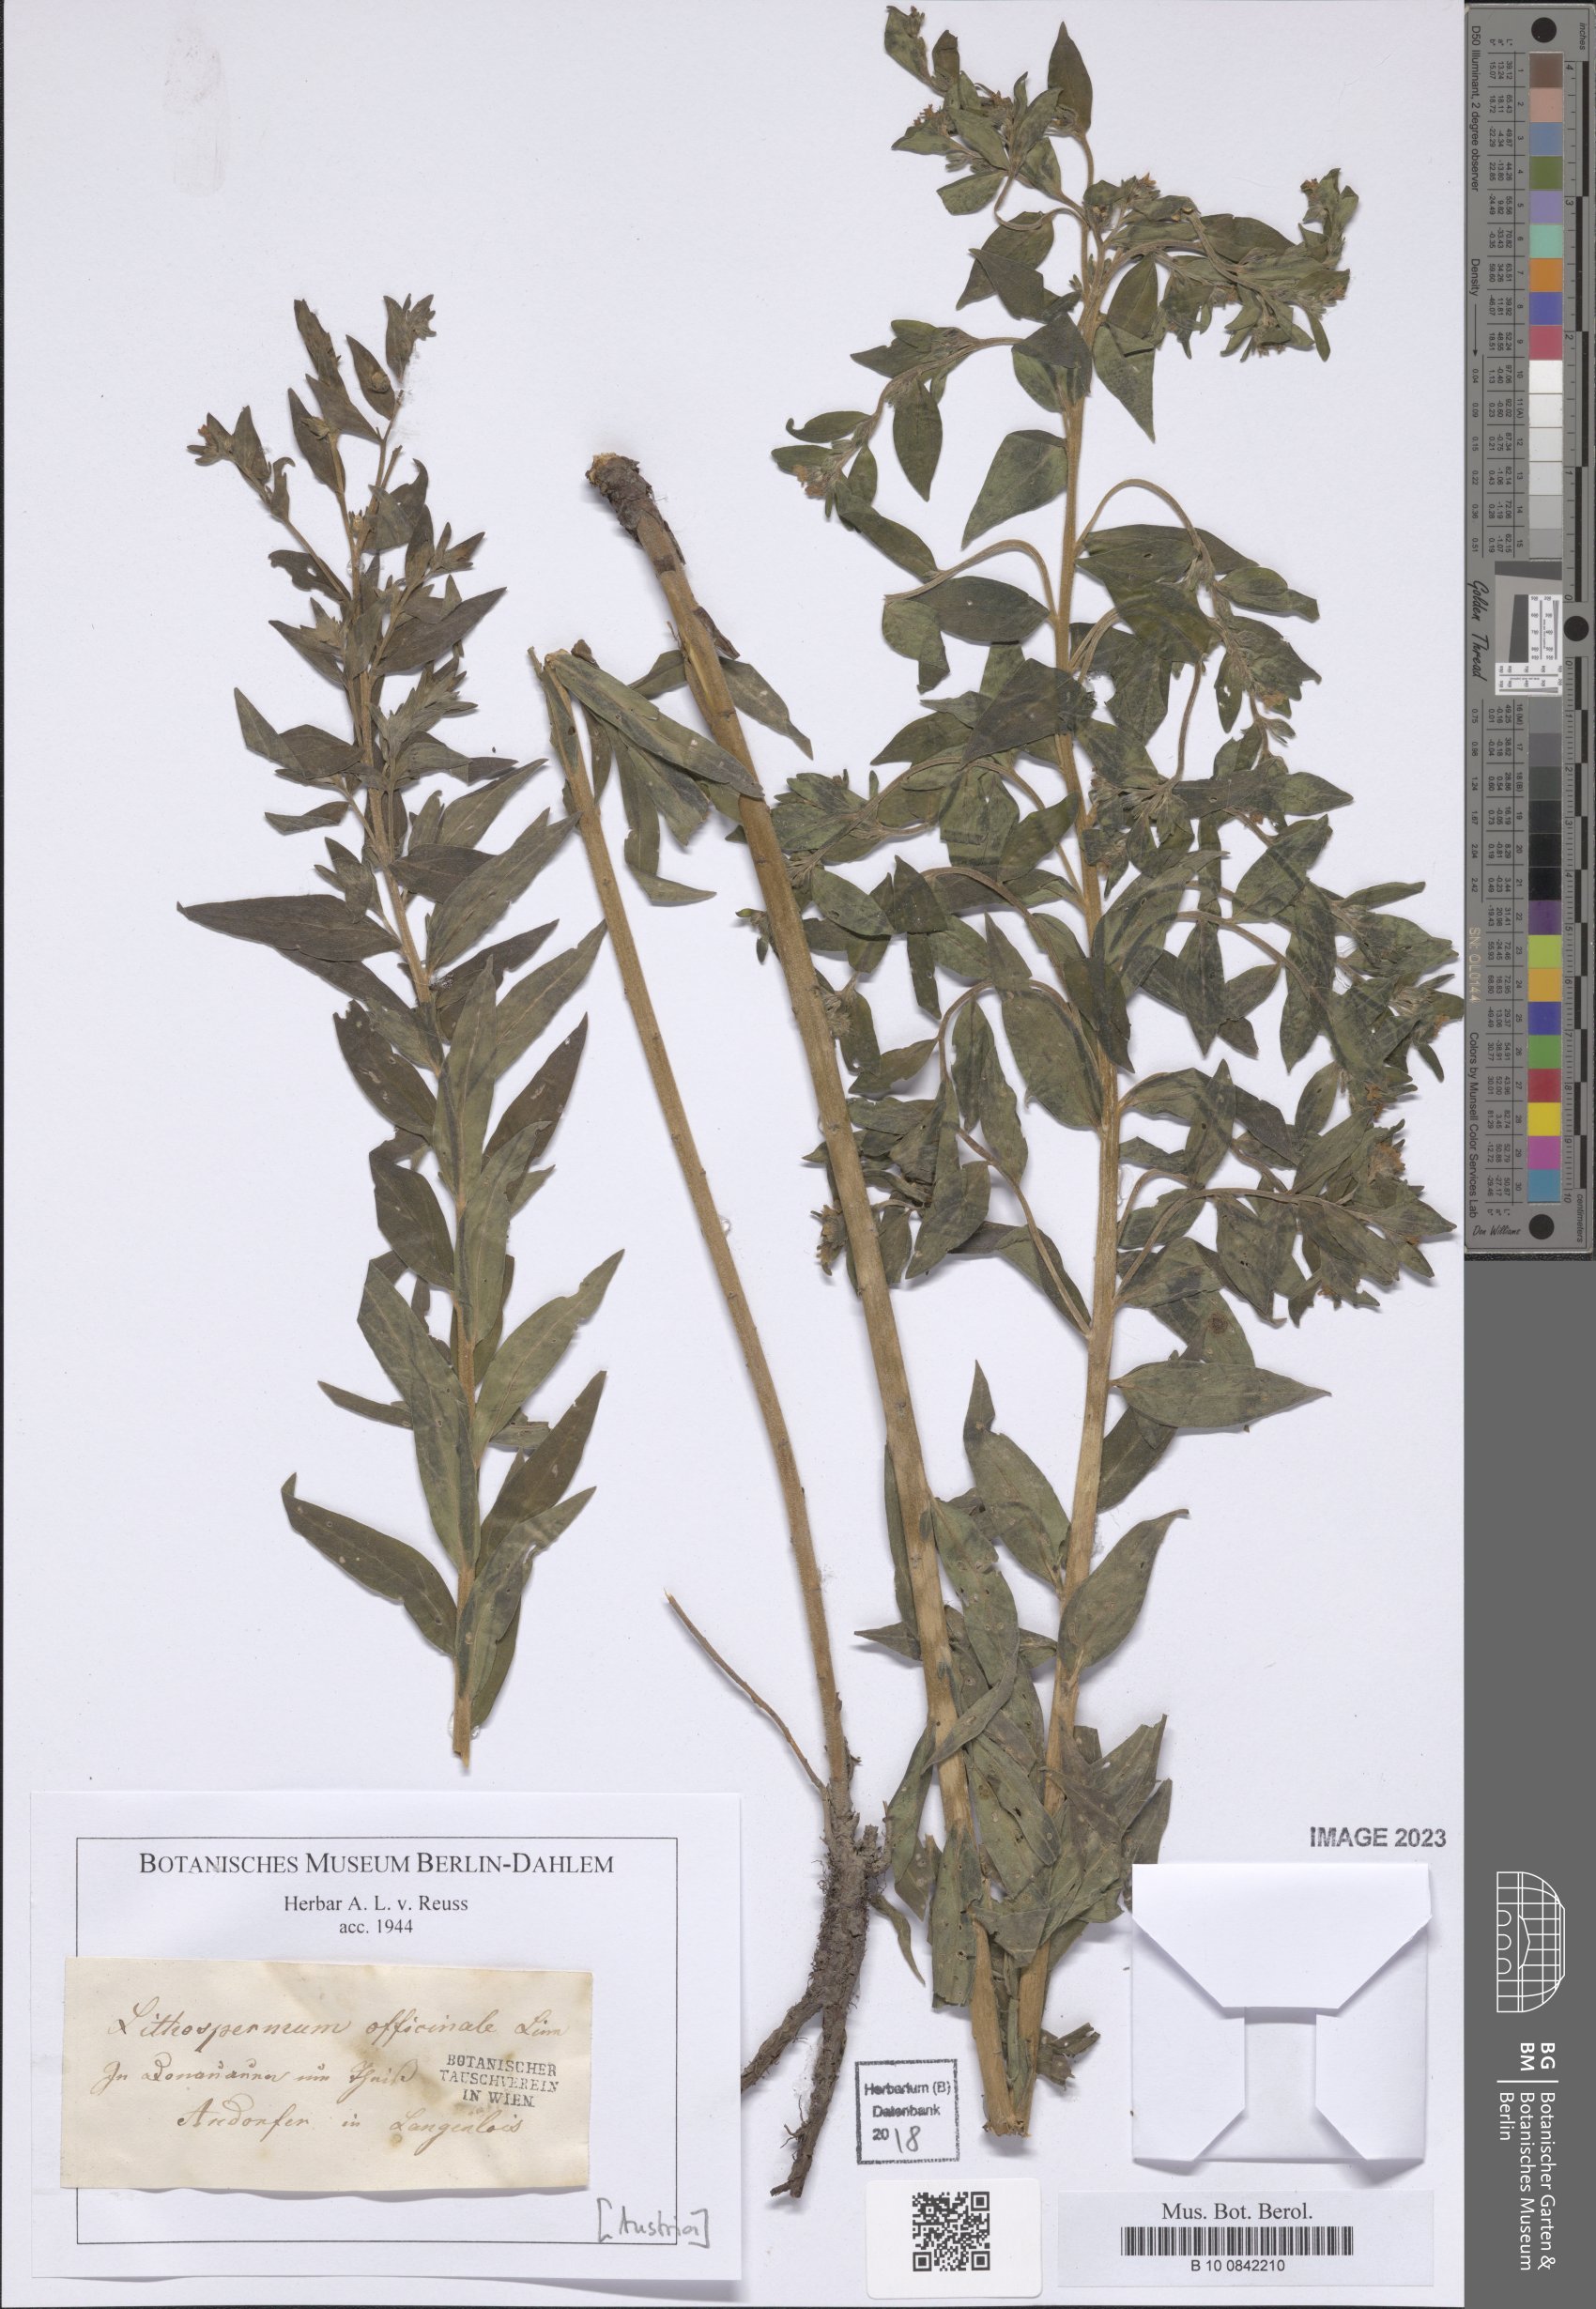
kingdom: Plantae
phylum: Tracheophyta
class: Magnoliopsida
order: Boraginales
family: Boraginaceae
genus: Lithospermum
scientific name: Lithospermum officinale
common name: Common gromwell
